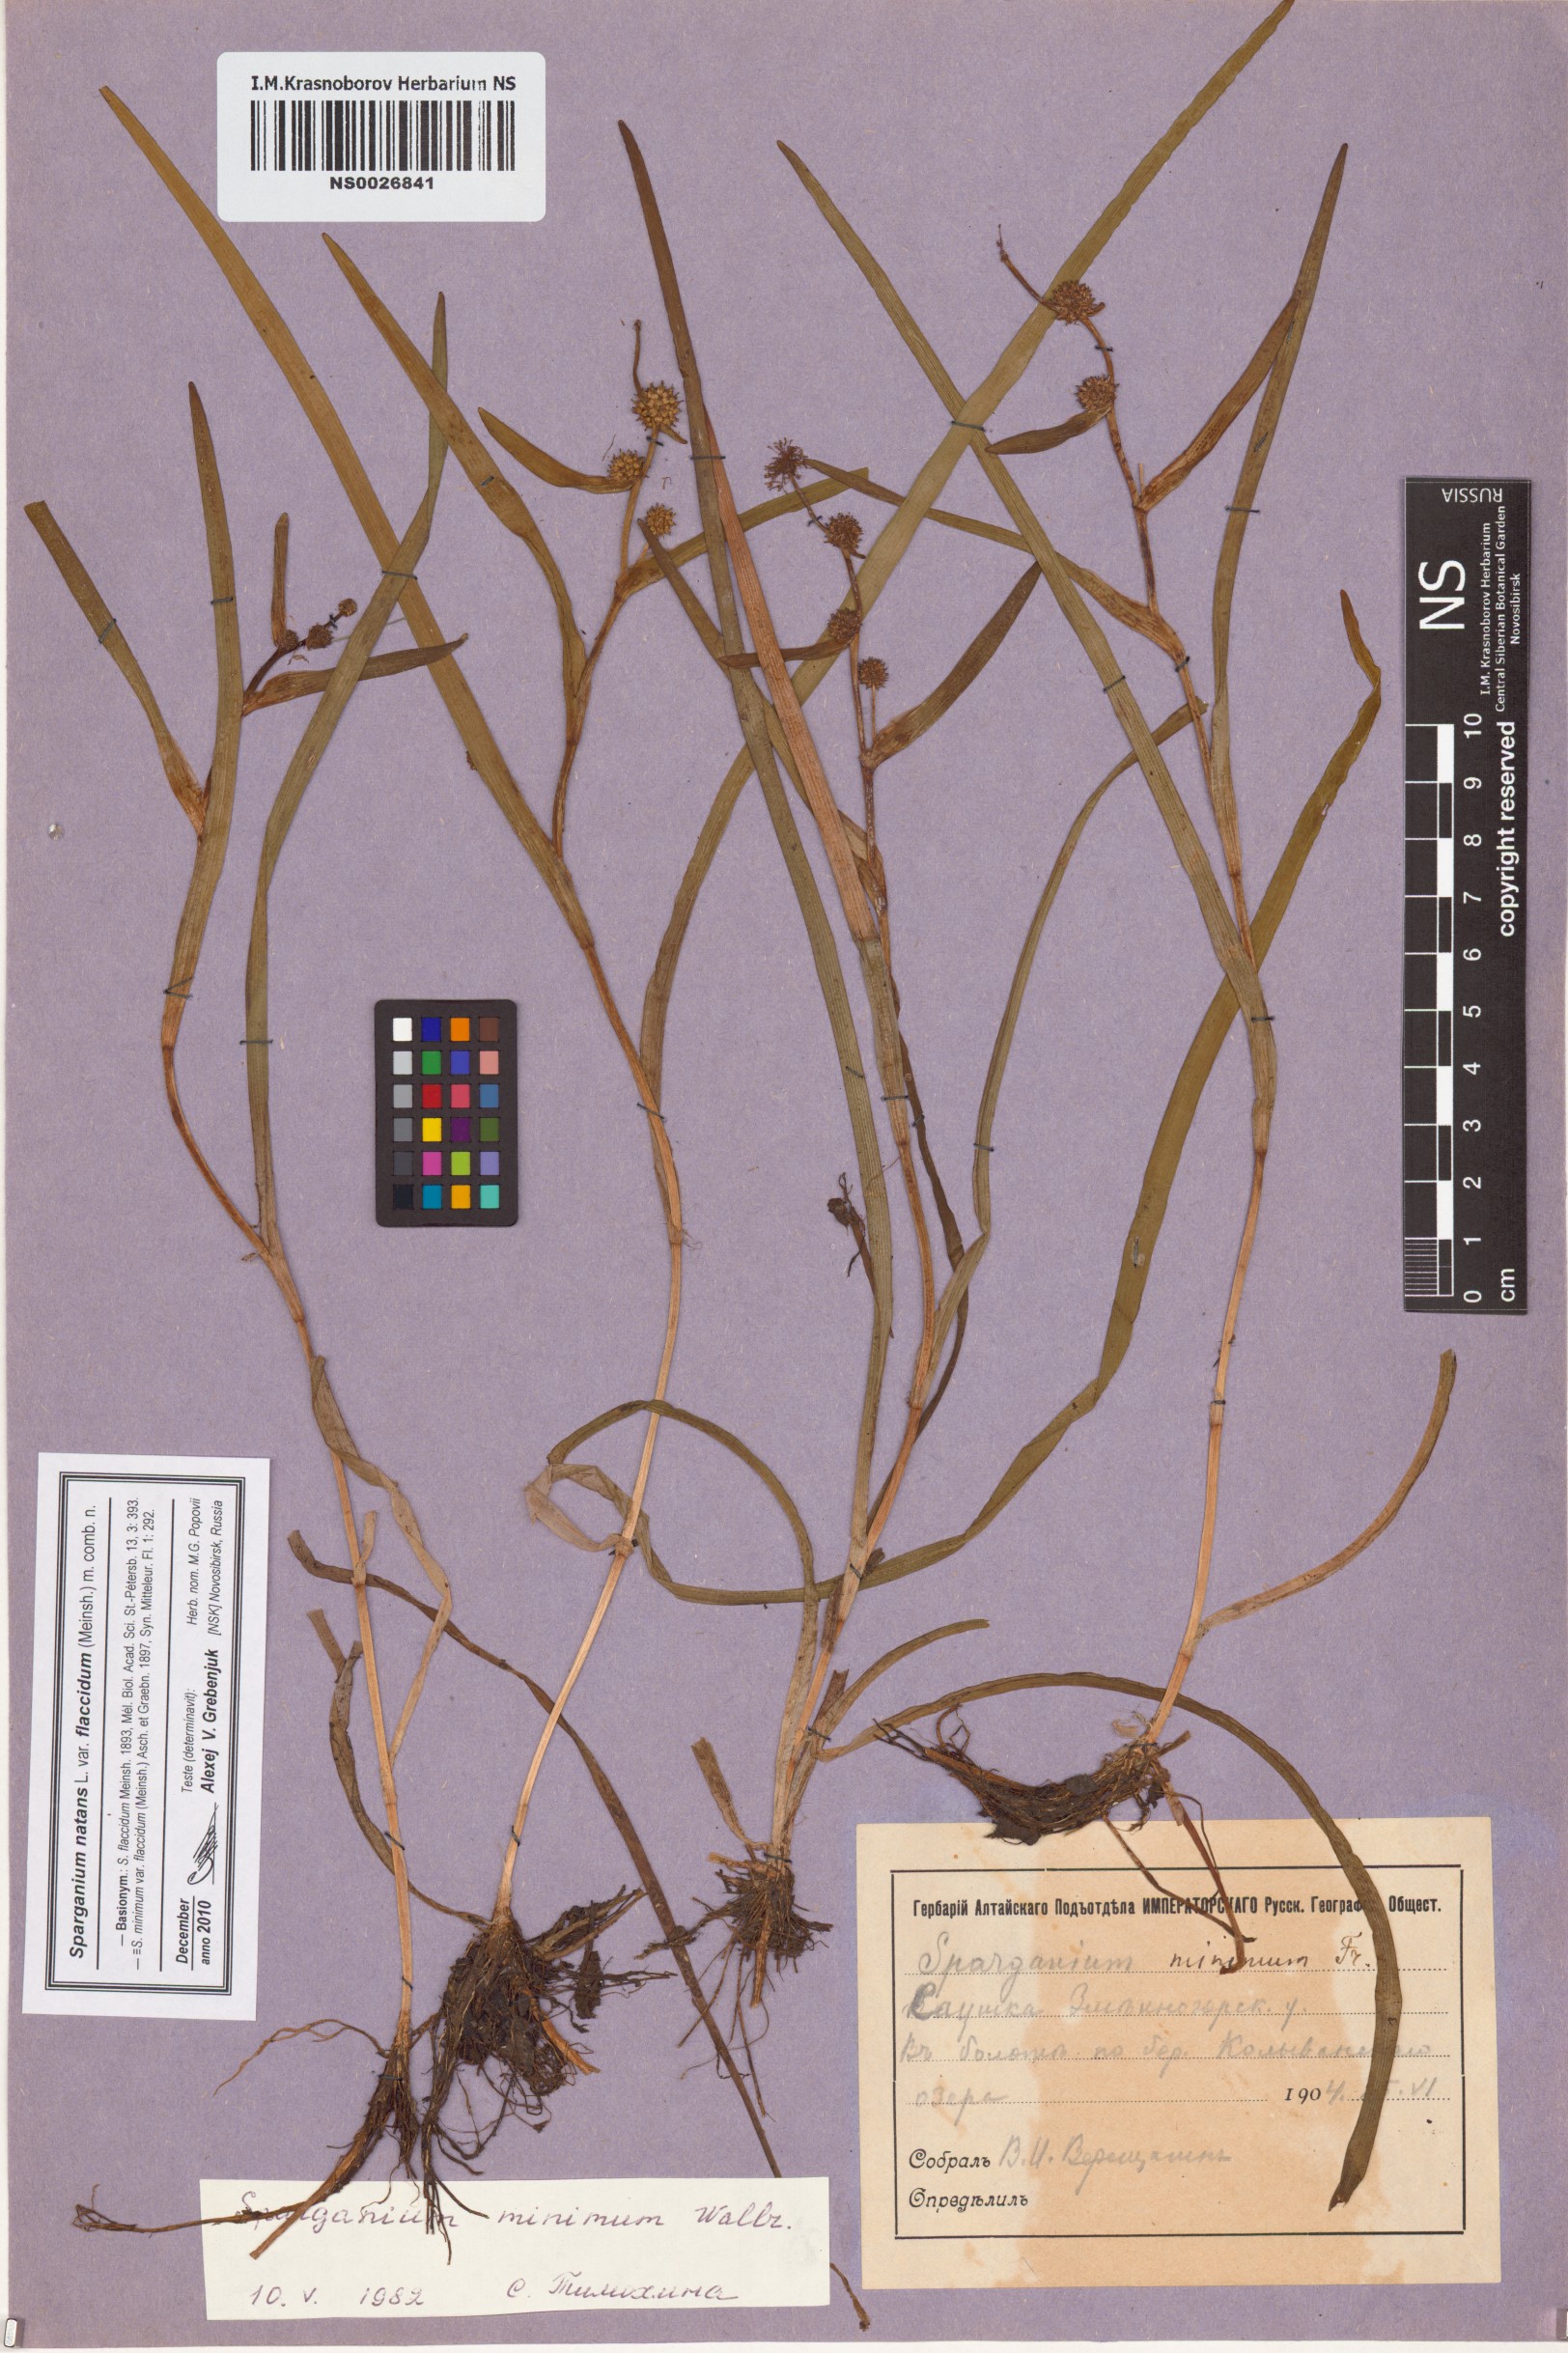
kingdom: Plantae
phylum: Tracheophyta
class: Liliopsida
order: Poales
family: Typhaceae
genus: Sparganium
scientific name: Sparganium natans
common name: Least bur-reed
